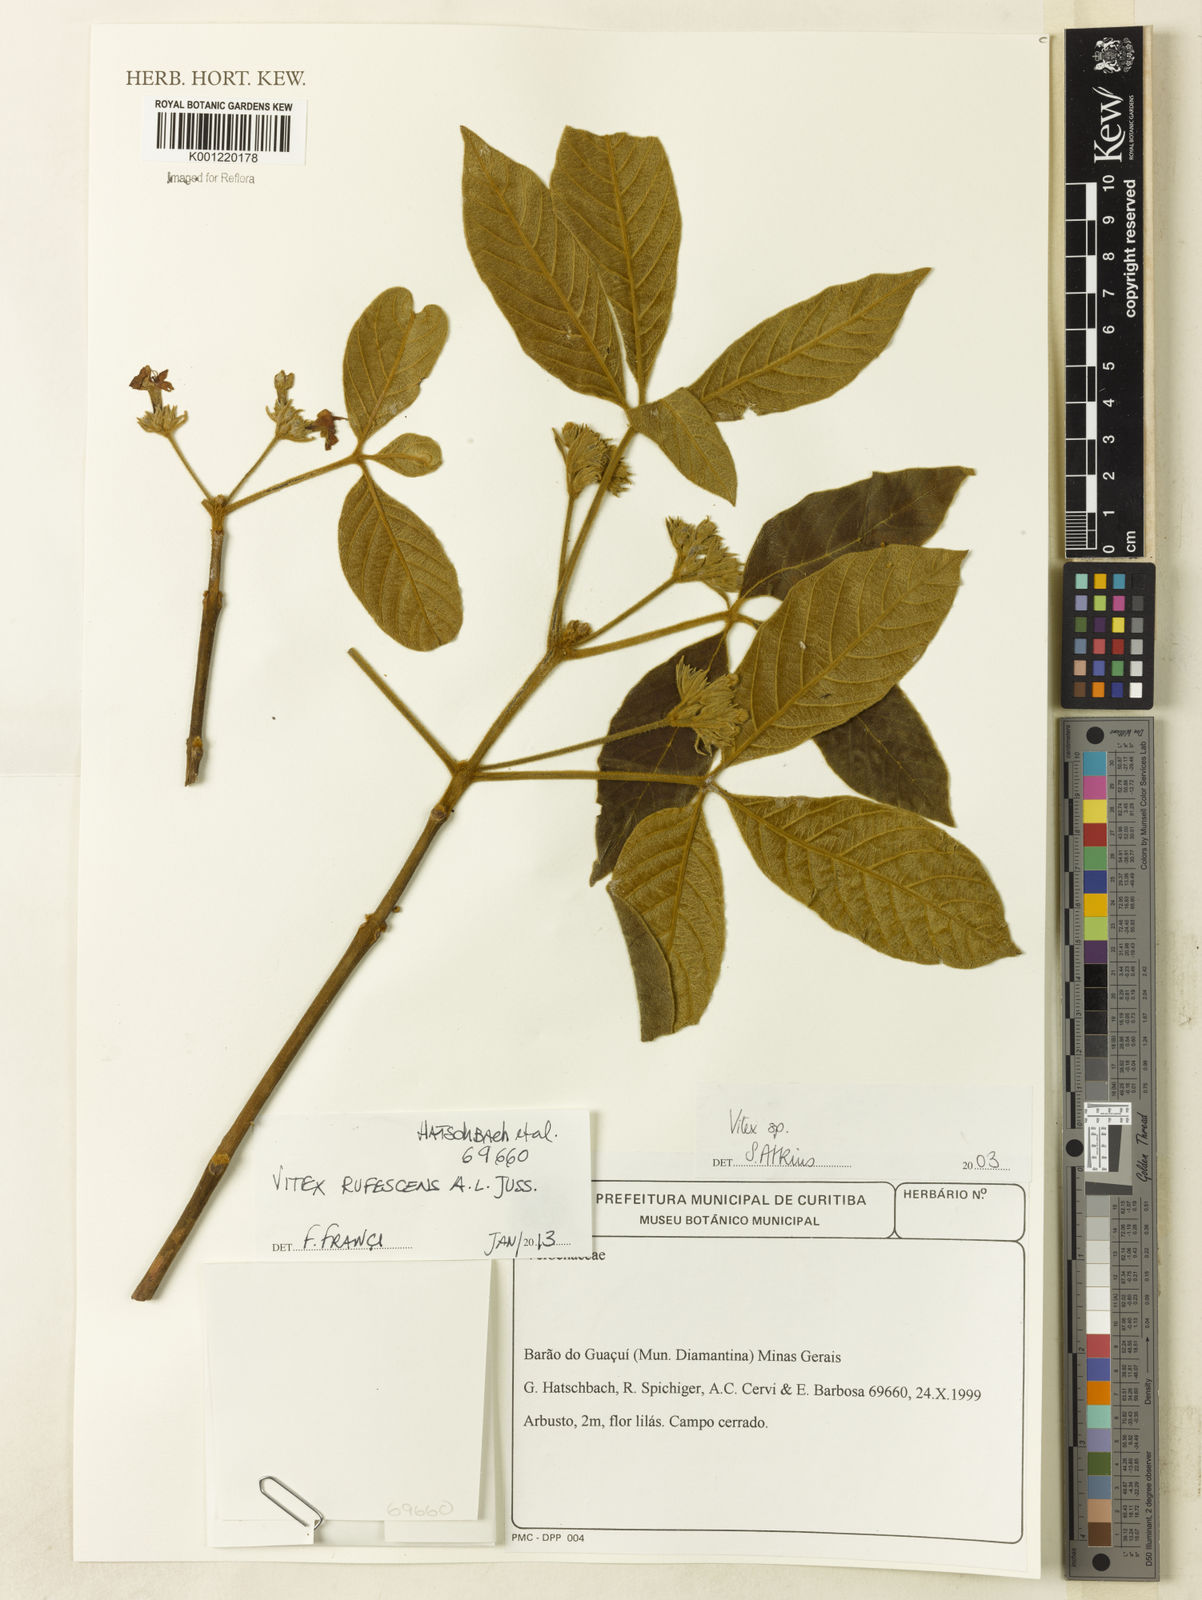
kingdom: Plantae
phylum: Tracheophyta
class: Magnoliopsida
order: Lamiales
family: Lamiaceae
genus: Vitex
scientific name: Vitex rufescens
